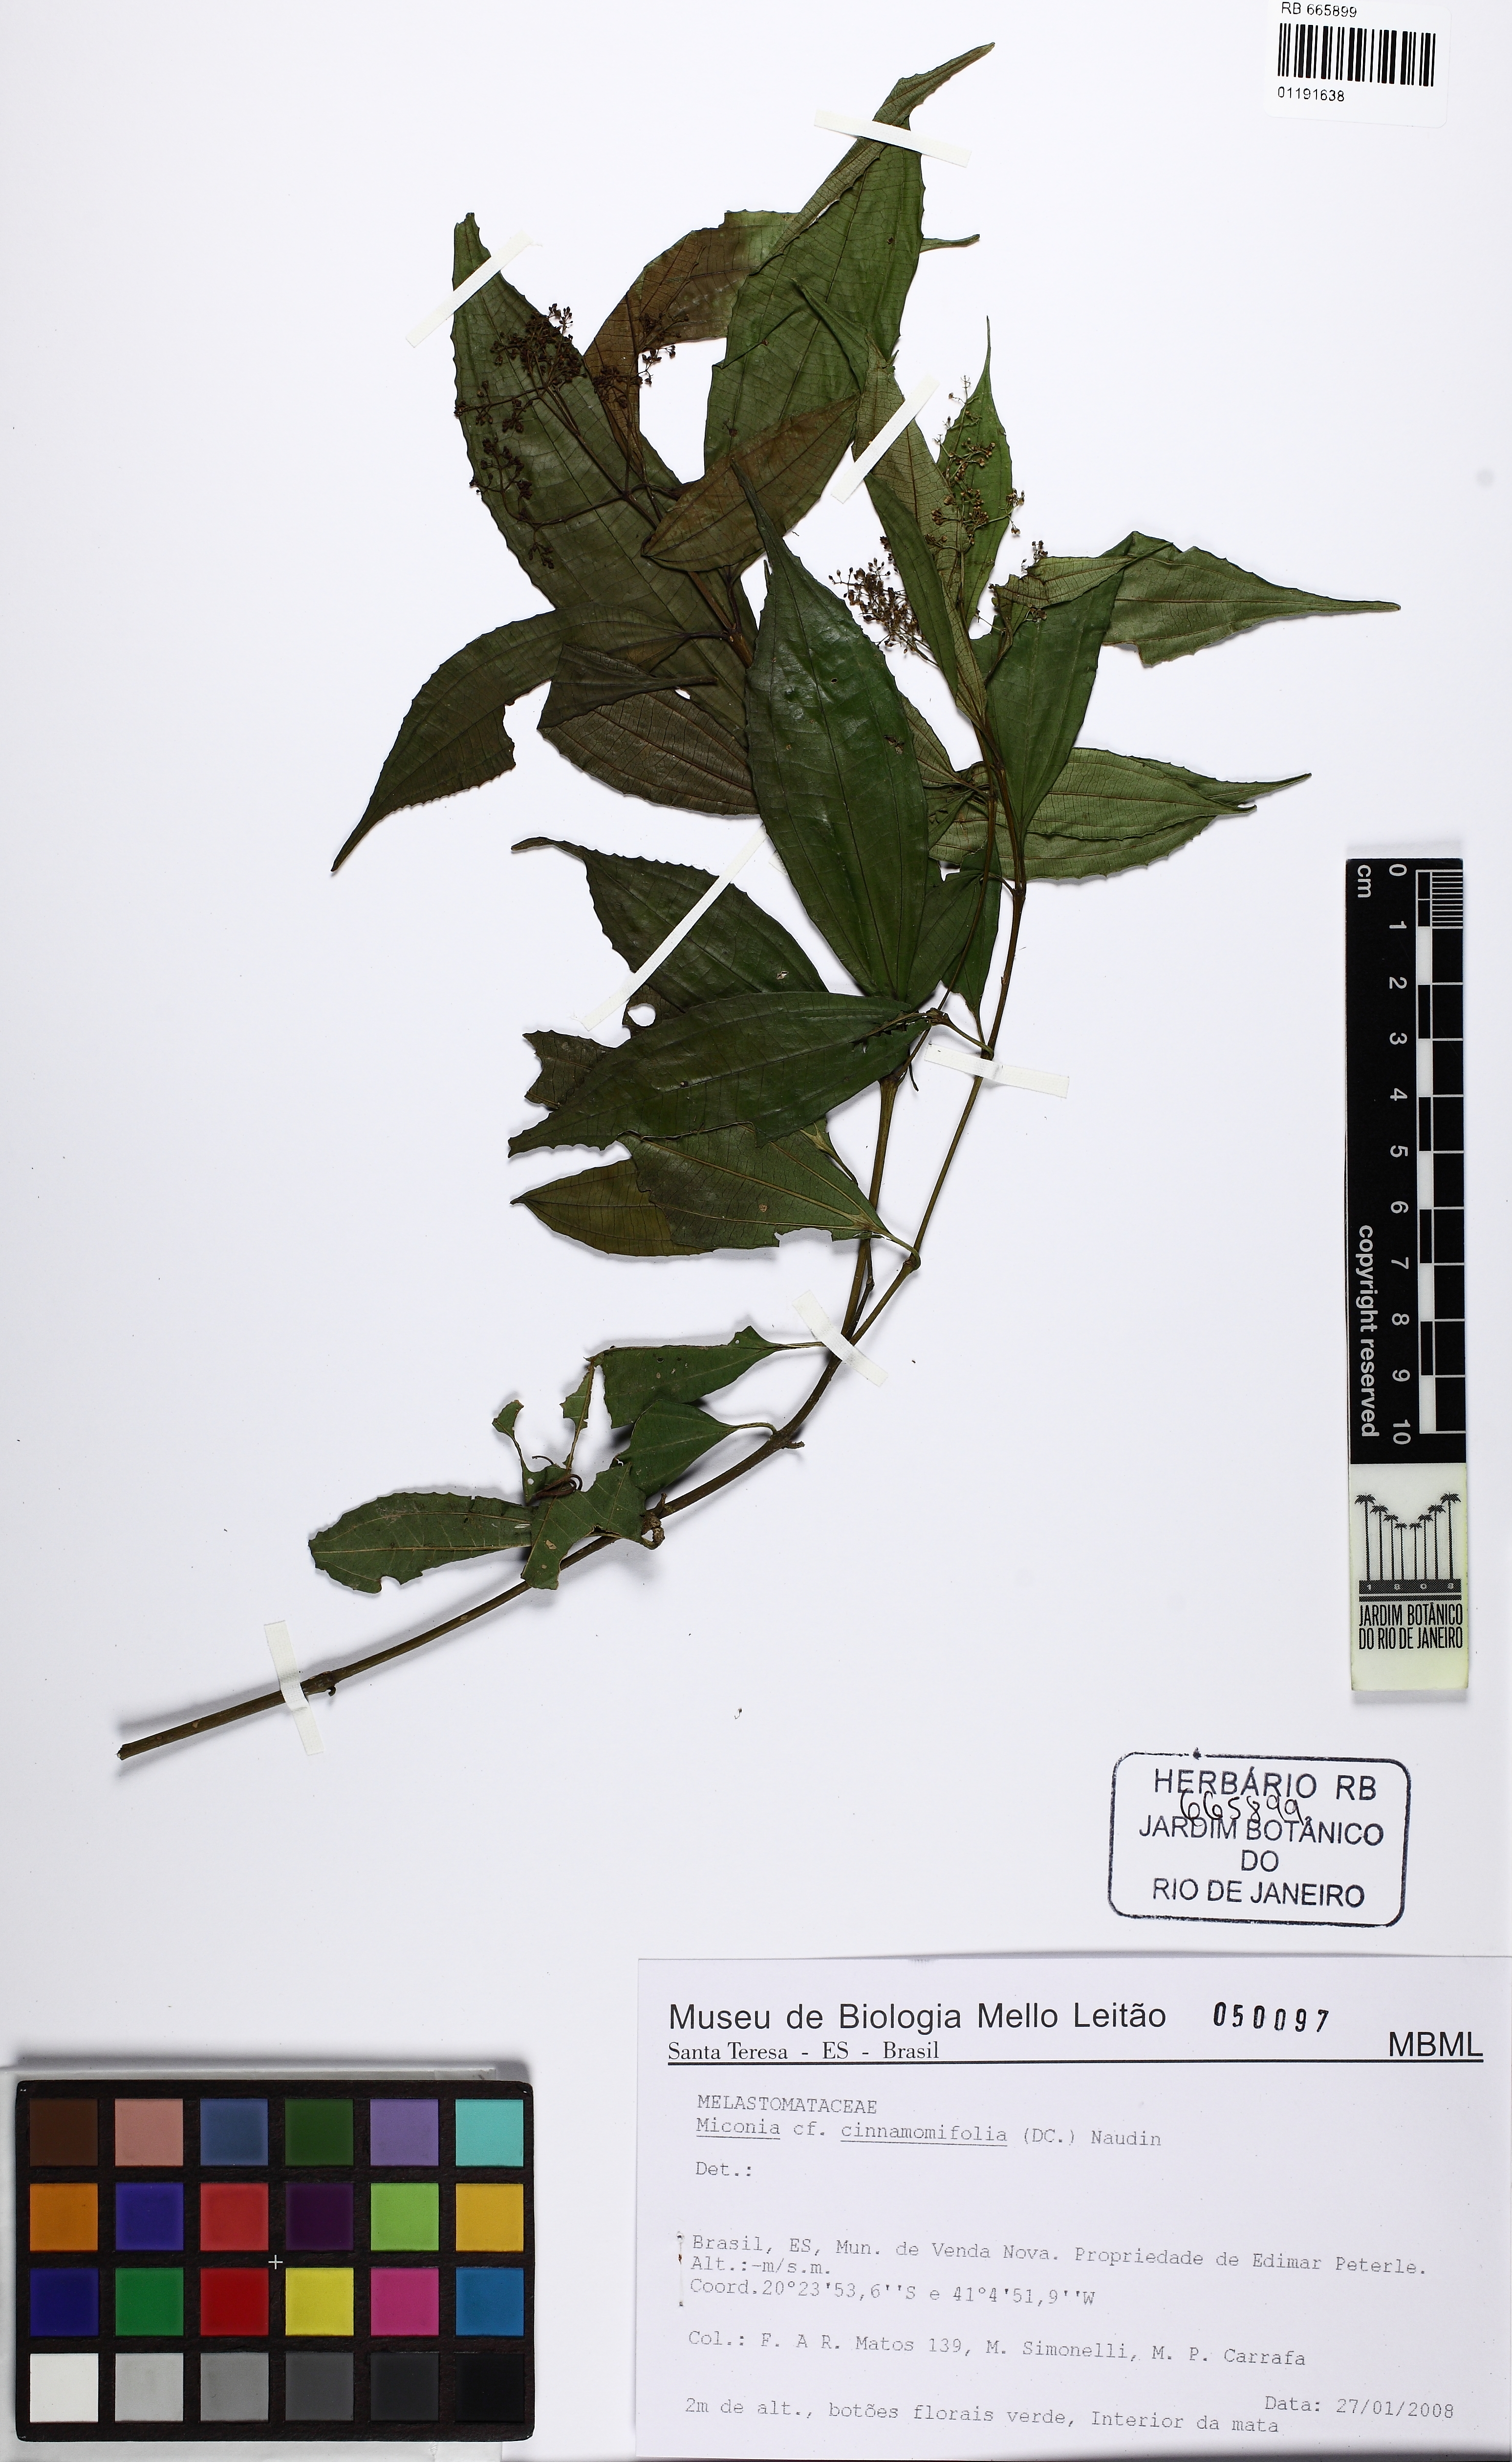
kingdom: Plantae
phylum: Tracheophyta
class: Magnoliopsida
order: Myrtales
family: Melastomataceae
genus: Miconia
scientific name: Miconia cinnamomifolia
